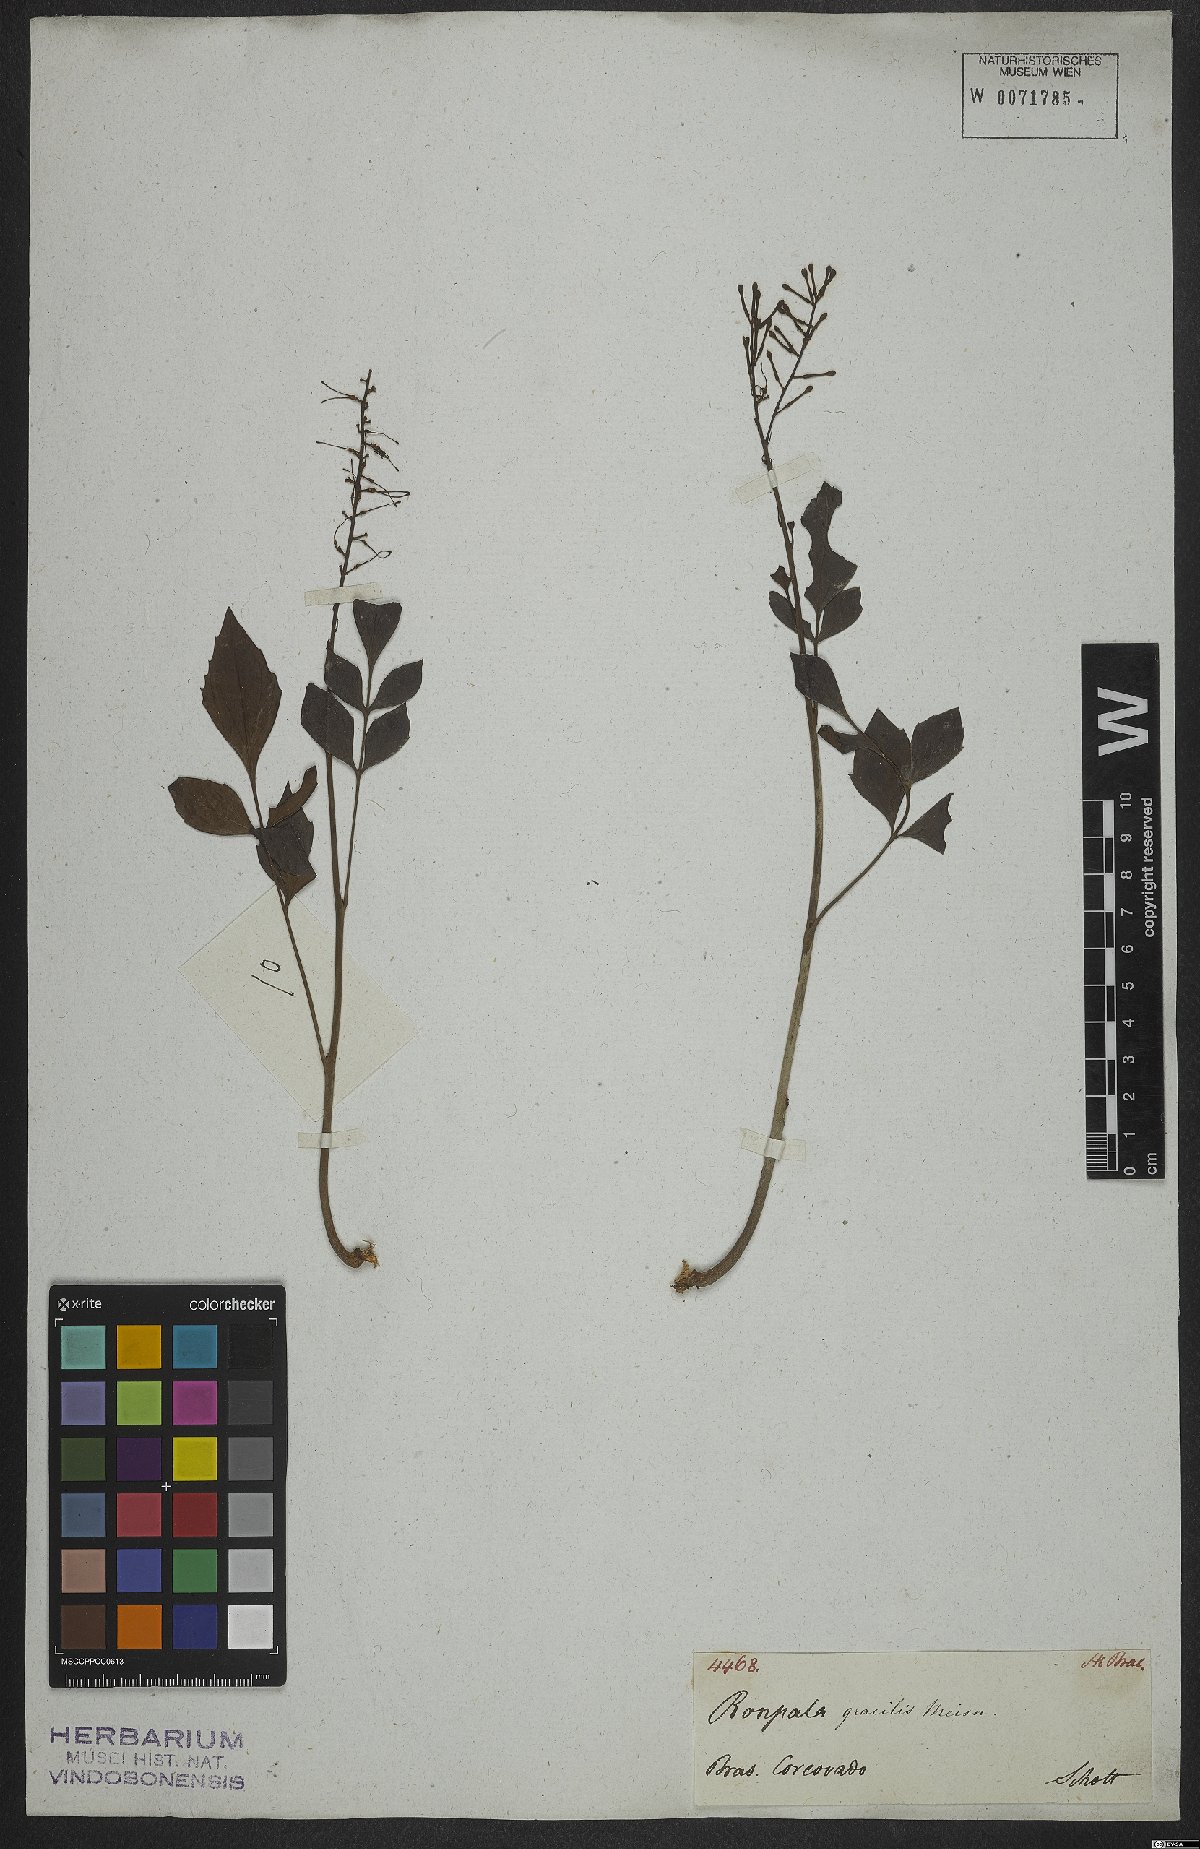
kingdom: Plantae
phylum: Tracheophyta
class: Magnoliopsida
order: Proteales
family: Proteaceae
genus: Roupala
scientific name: Roupala gracilis
